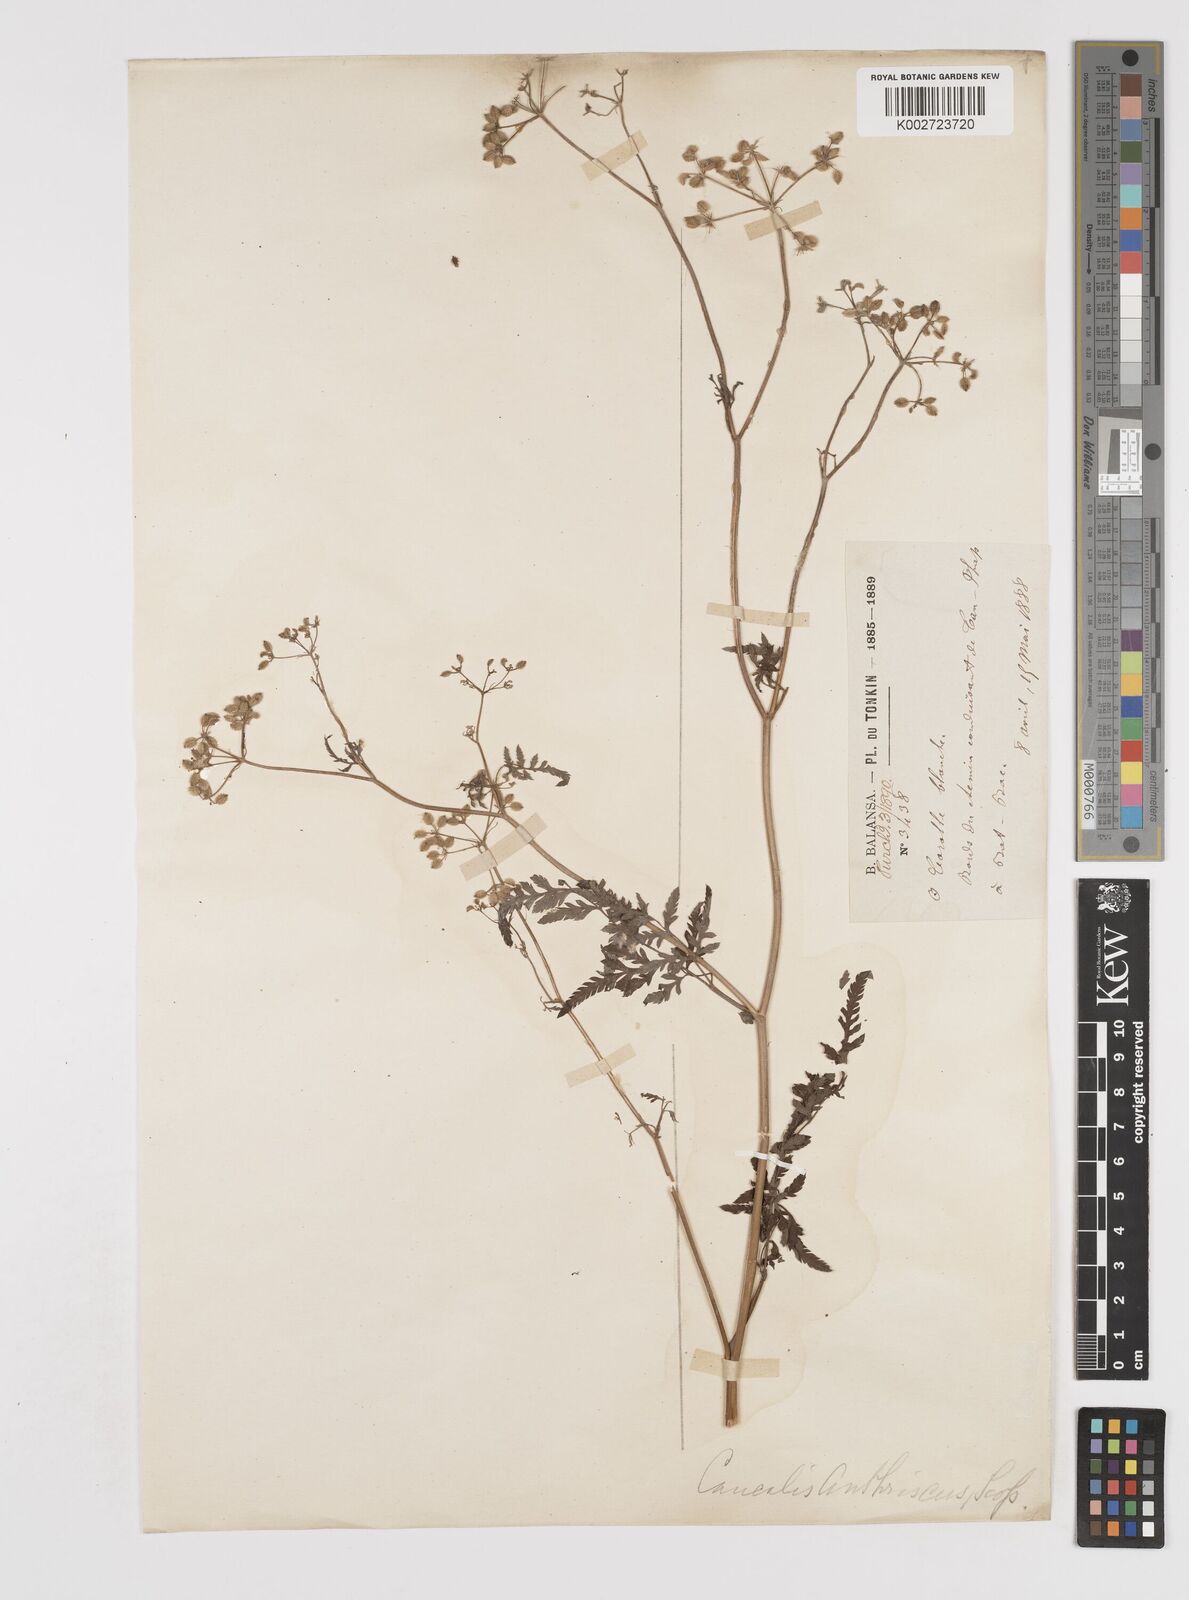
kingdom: Plantae
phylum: Tracheophyta
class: Magnoliopsida
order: Apiales
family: Apiaceae
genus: Anthriscus
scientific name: Anthriscus caucalis
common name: Bur chervil
